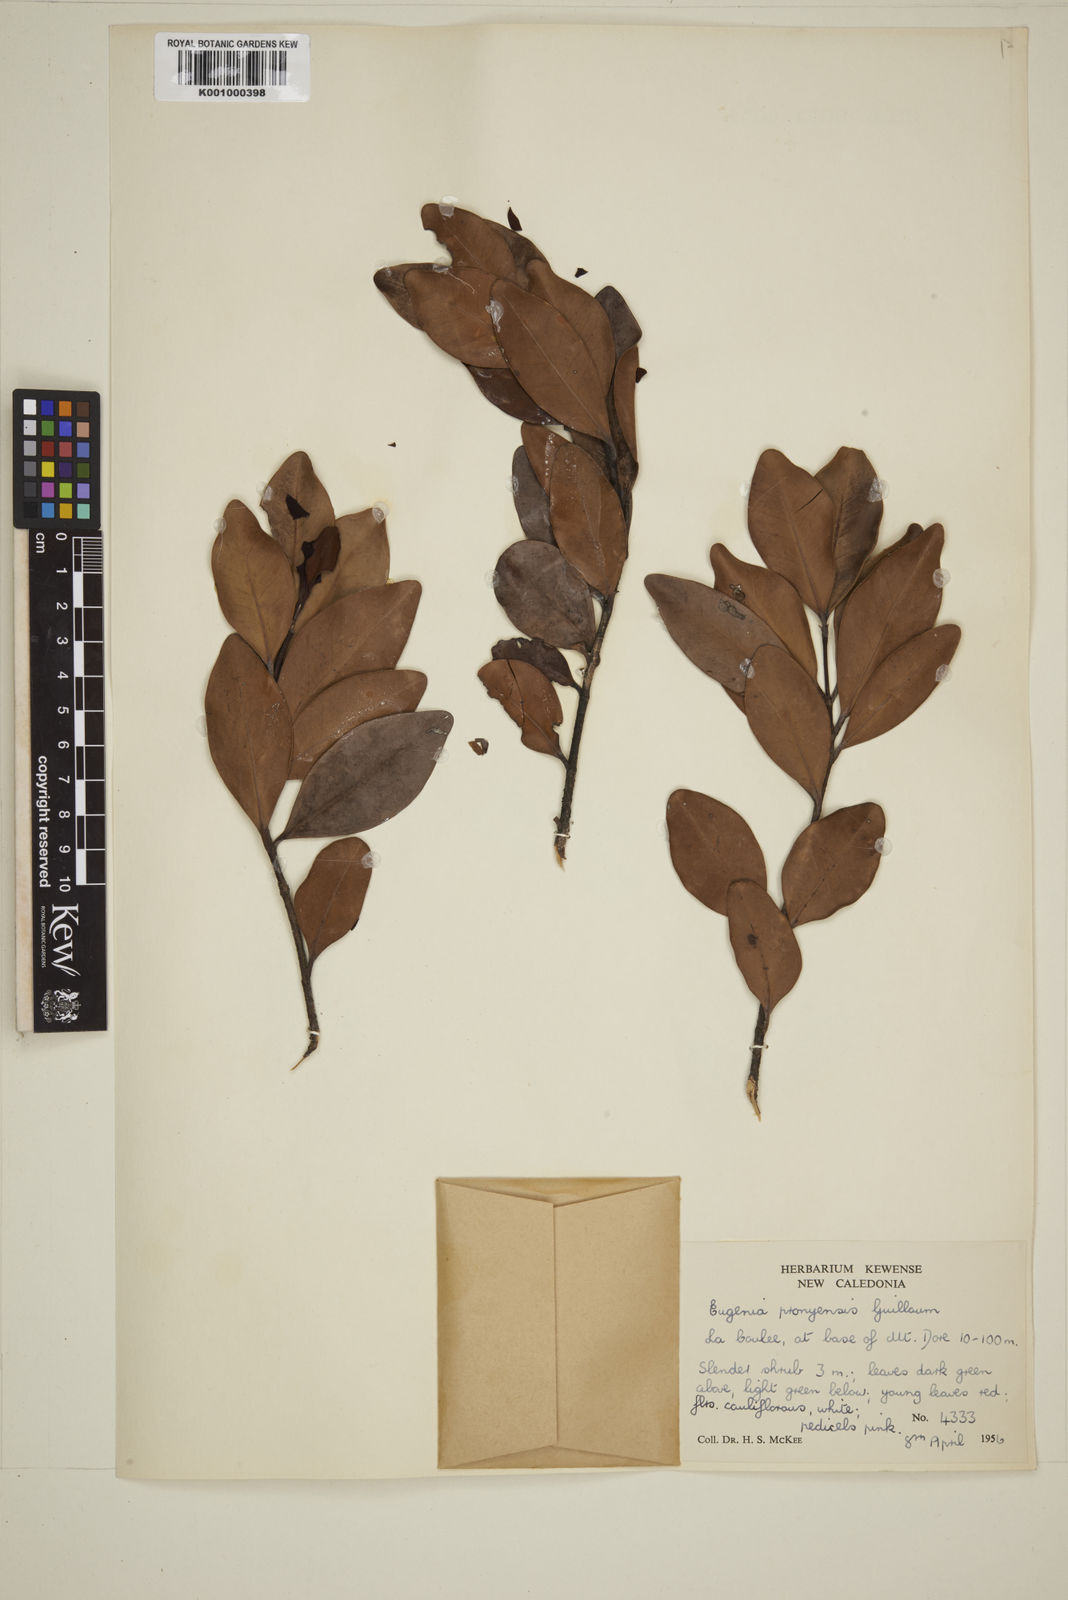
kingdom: Plantae
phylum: Tracheophyta
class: Magnoliopsida
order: Myrtales
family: Myrtaceae
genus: Eugenia
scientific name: Eugenia pronyensis
